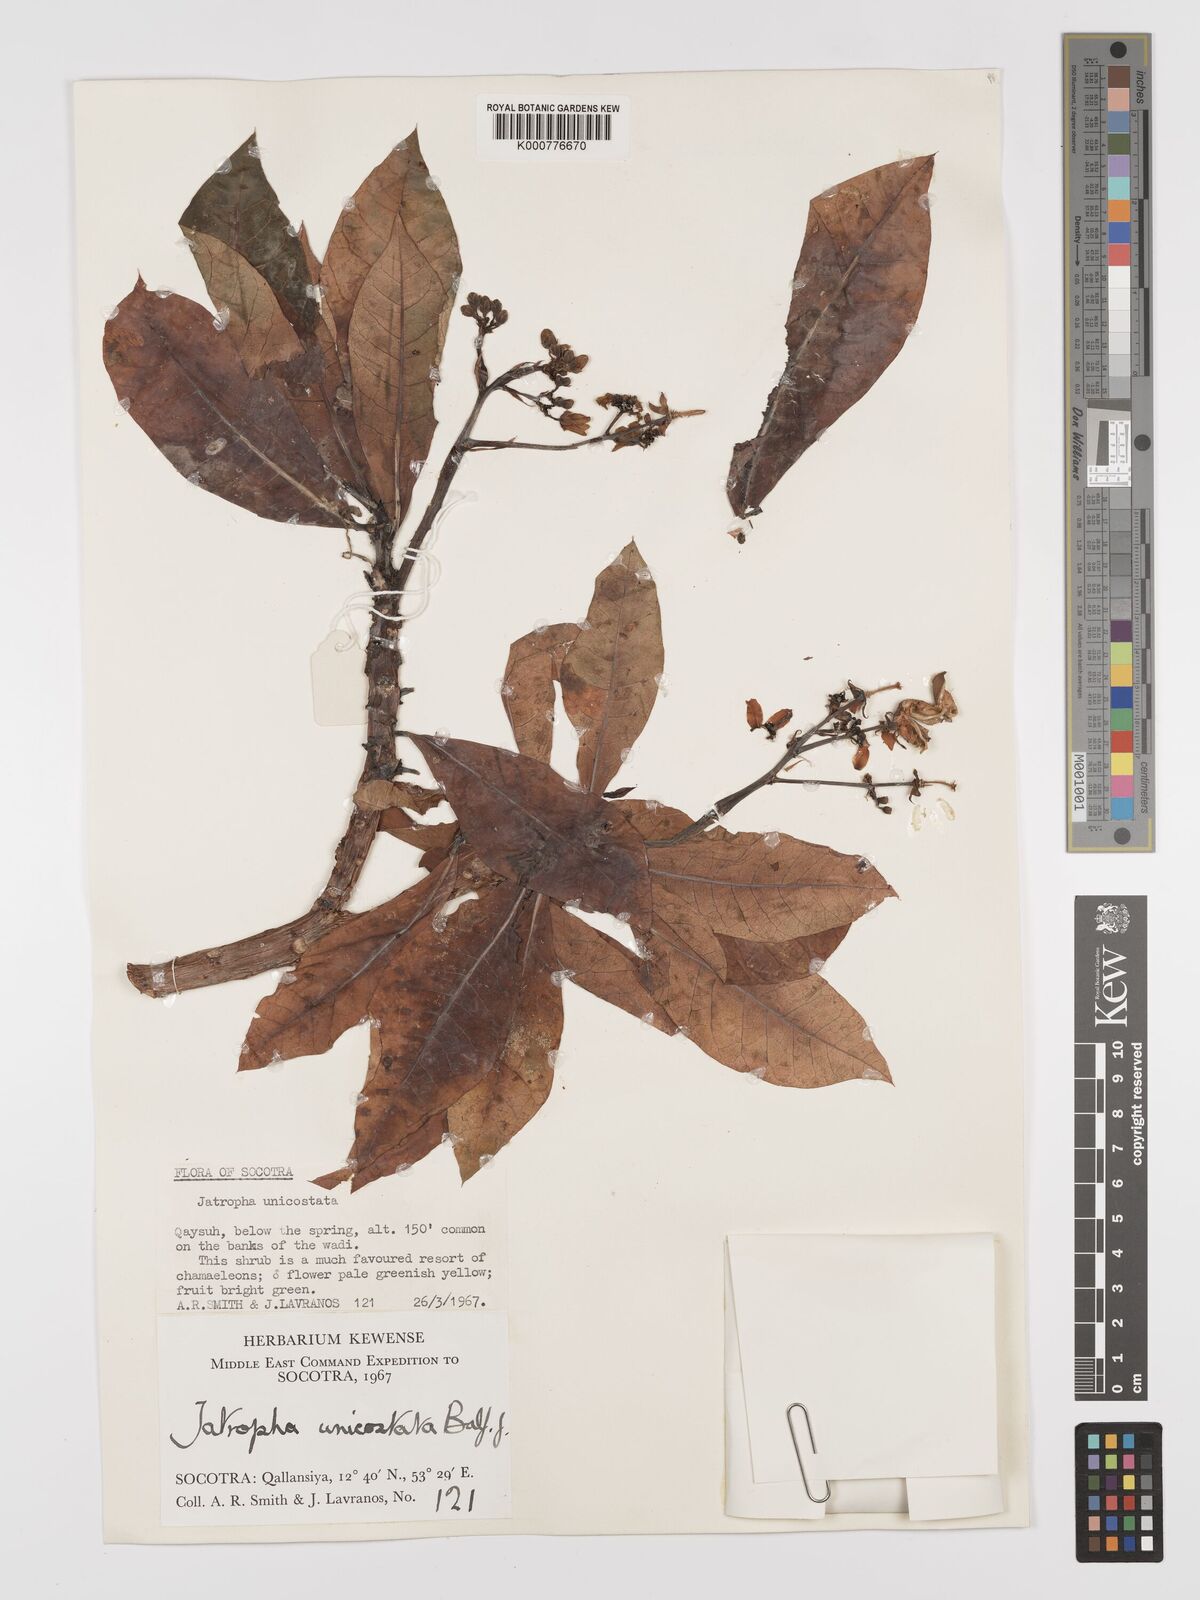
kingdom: Plantae
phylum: Tracheophyta
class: Magnoliopsida
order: Malpighiales
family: Euphorbiaceae
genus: Jatropha
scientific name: Jatropha unicostata
